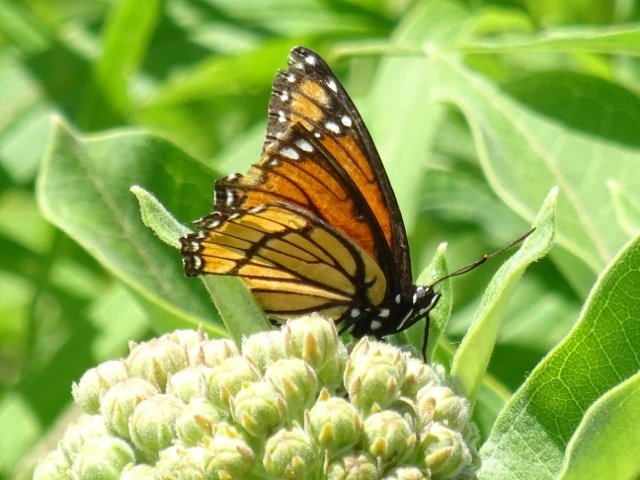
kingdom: Animalia
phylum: Arthropoda
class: Insecta
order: Lepidoptera
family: Nymphalidae
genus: Limenitis
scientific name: Limenitis archippus
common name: Viceroy
